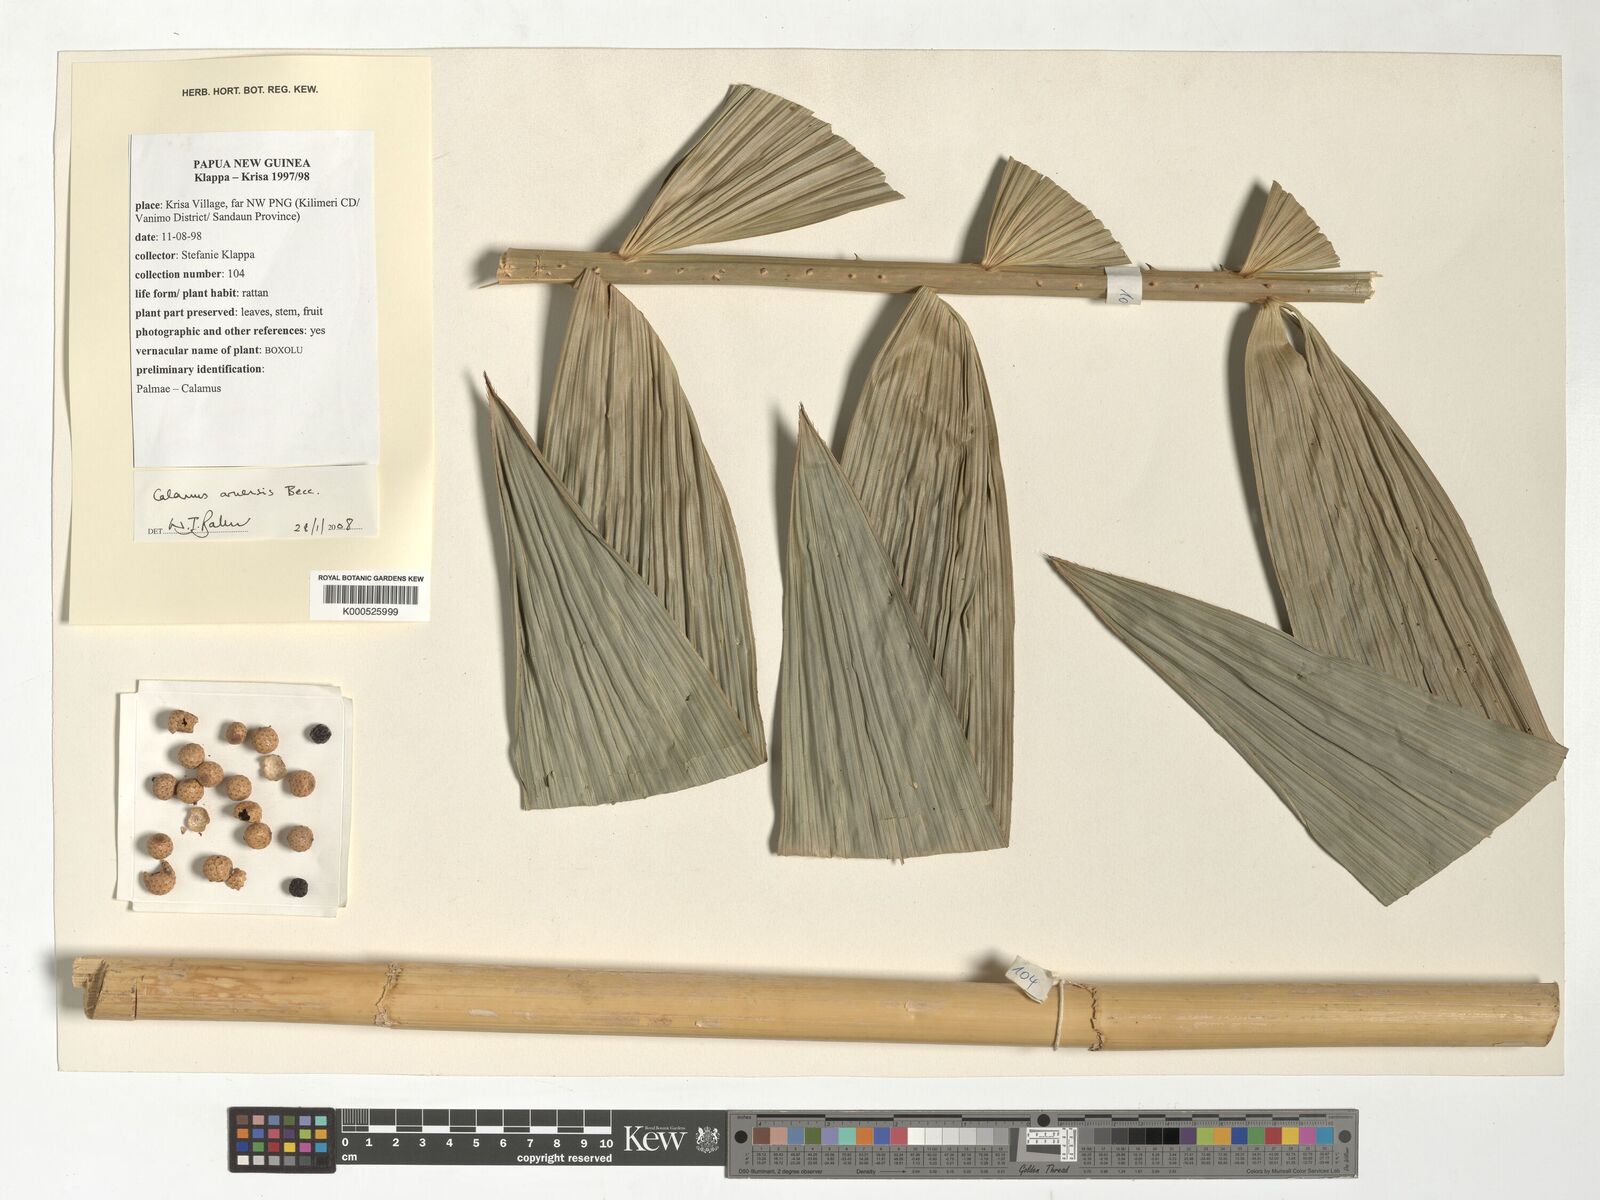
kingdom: Plantae
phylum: Tracheophyta
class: Liliopsida
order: Arecales
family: Arecaceae
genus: Calamus
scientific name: Calamus aruensis
